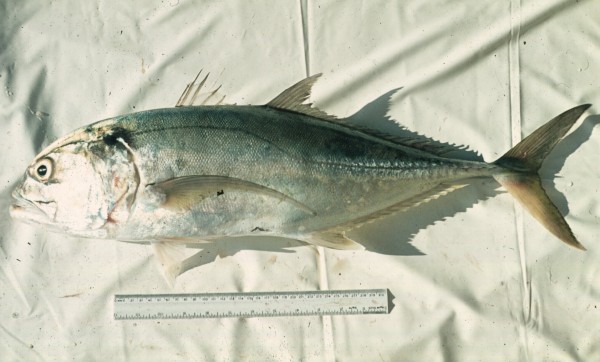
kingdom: Animalia
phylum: Chordata
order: Perciformes
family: Carangidae
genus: Pseudocaranx
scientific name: Pseudocaranx dentex
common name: White trevally
